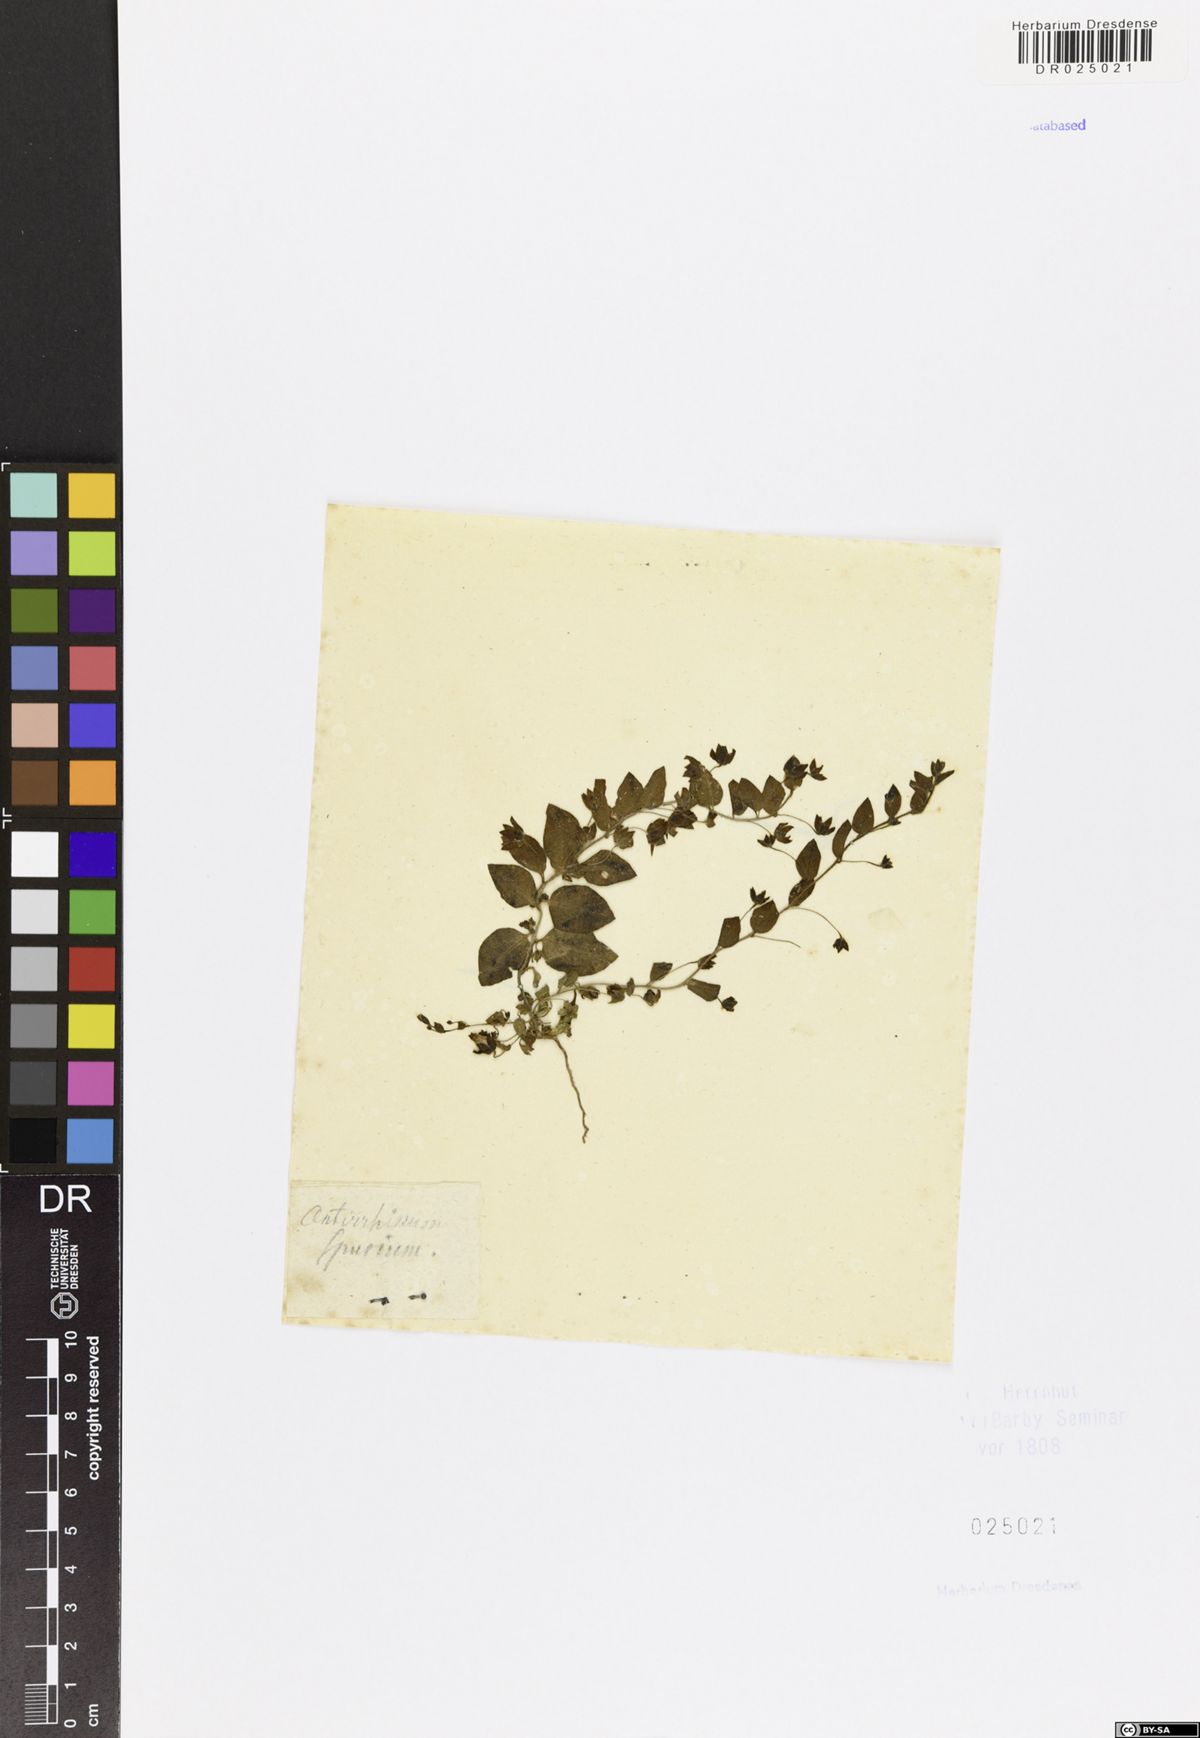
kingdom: Plantae
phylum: Tracheophyta
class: Magnoliopsida
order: Lamiales
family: Plantaginaceae
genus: Kickxia
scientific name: Kickxia spuria
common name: Round-leaved fluellen
